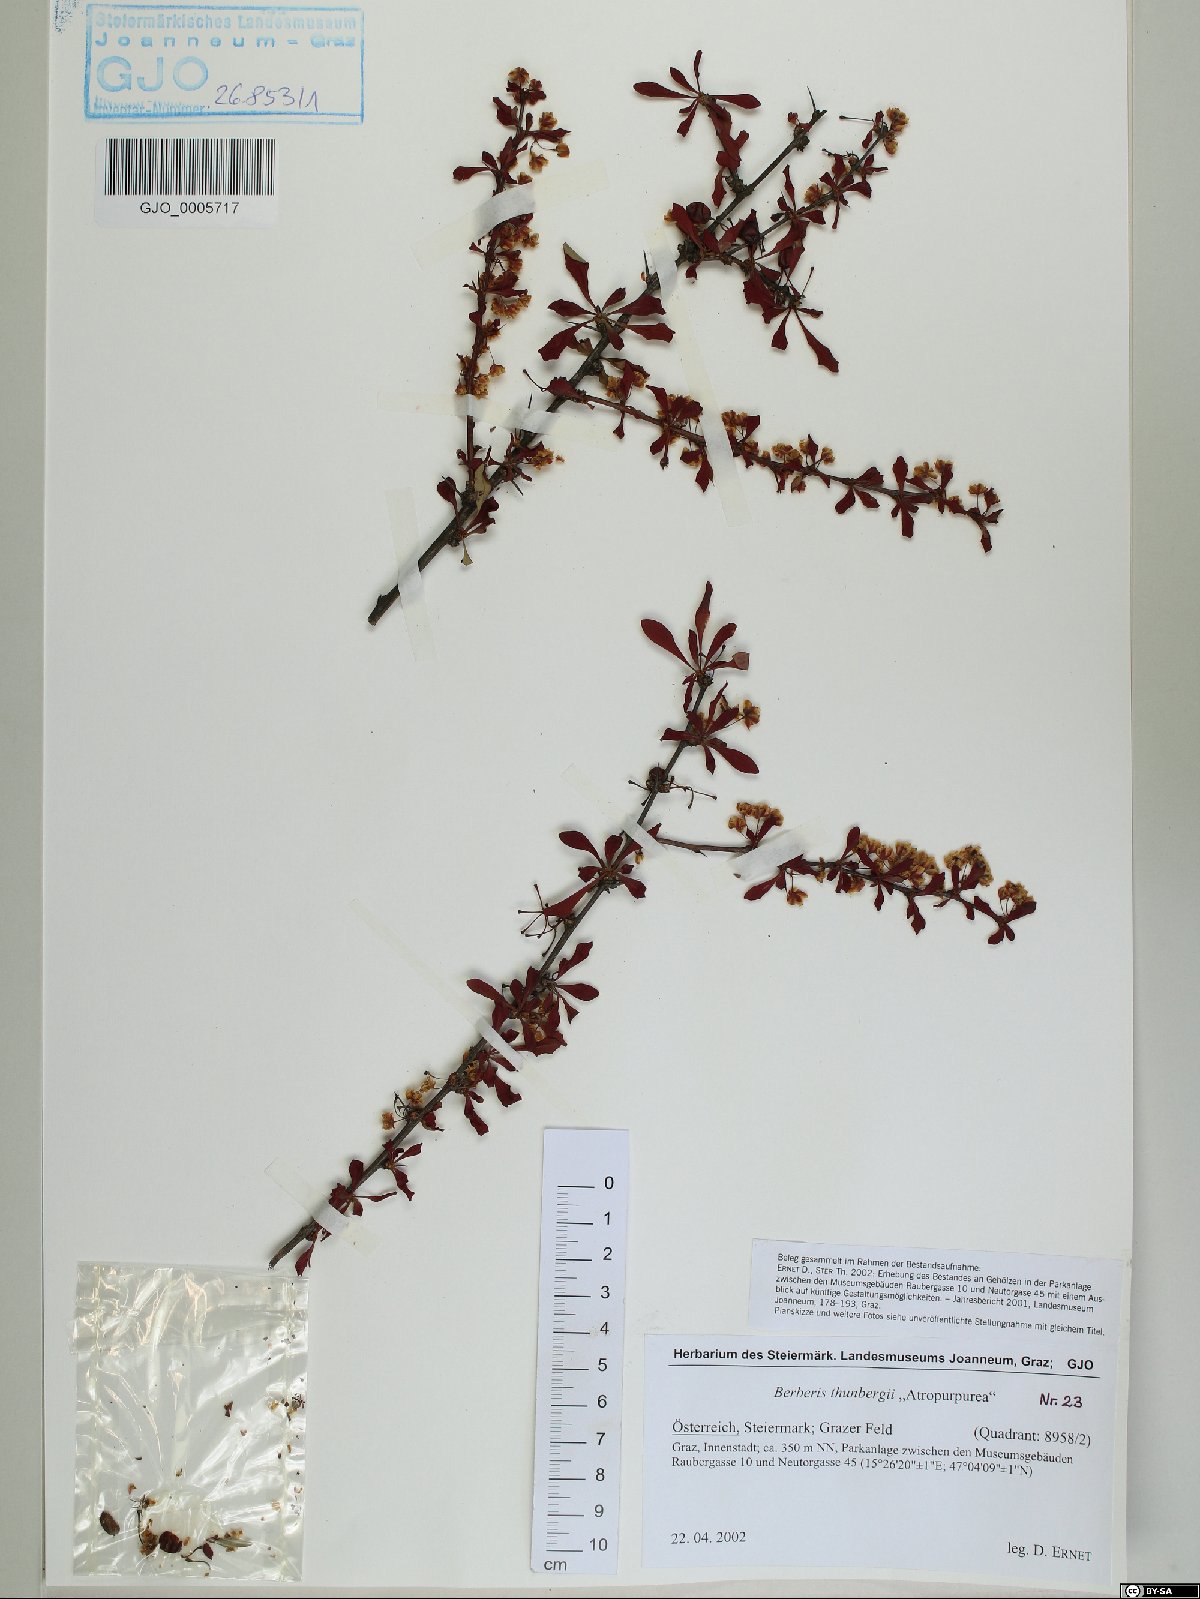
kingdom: Plantae
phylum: Tracheophyta
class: Magnoliopsida
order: Ranunculales
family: Berberidaceae
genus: Berberis
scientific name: Berberis thunbergii
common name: Japanese barberry
